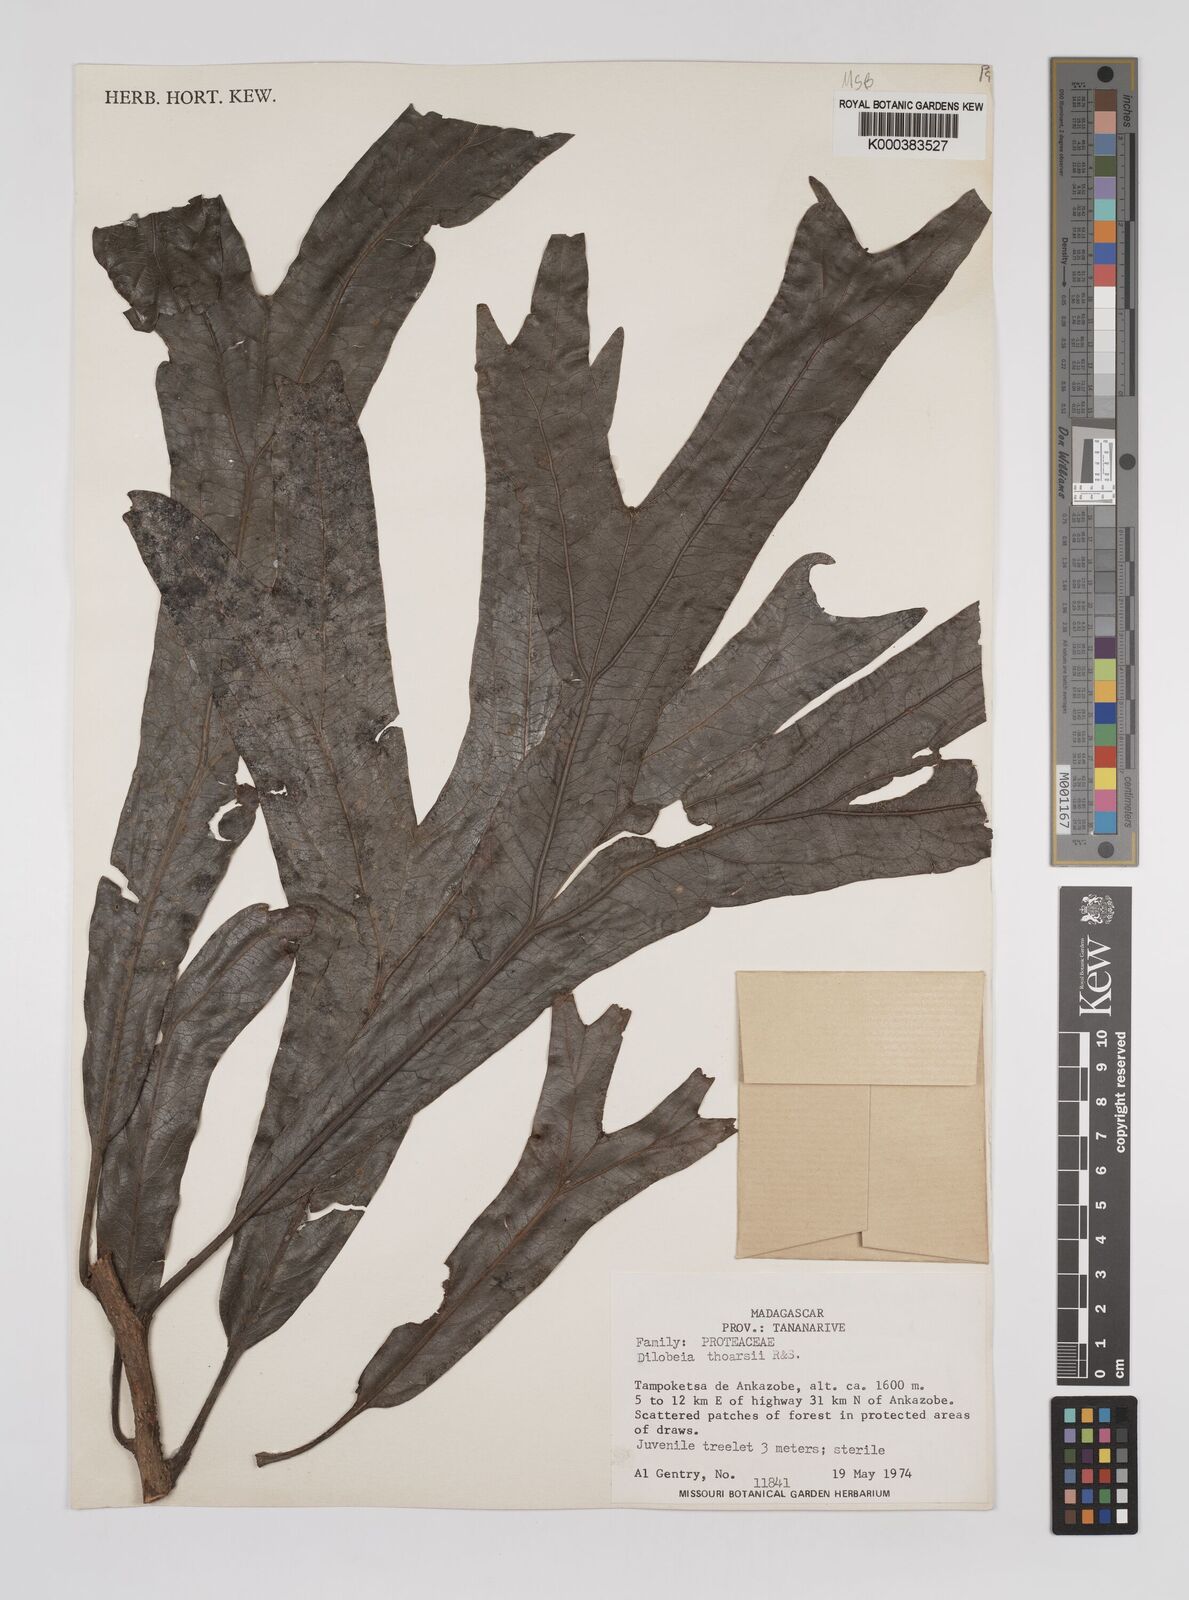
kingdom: Plantae
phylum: Tracheophyta
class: Magnoliopsida
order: Proteales
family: Proteaceae
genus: Dilobeia
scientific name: Dilobeia thouarsii
